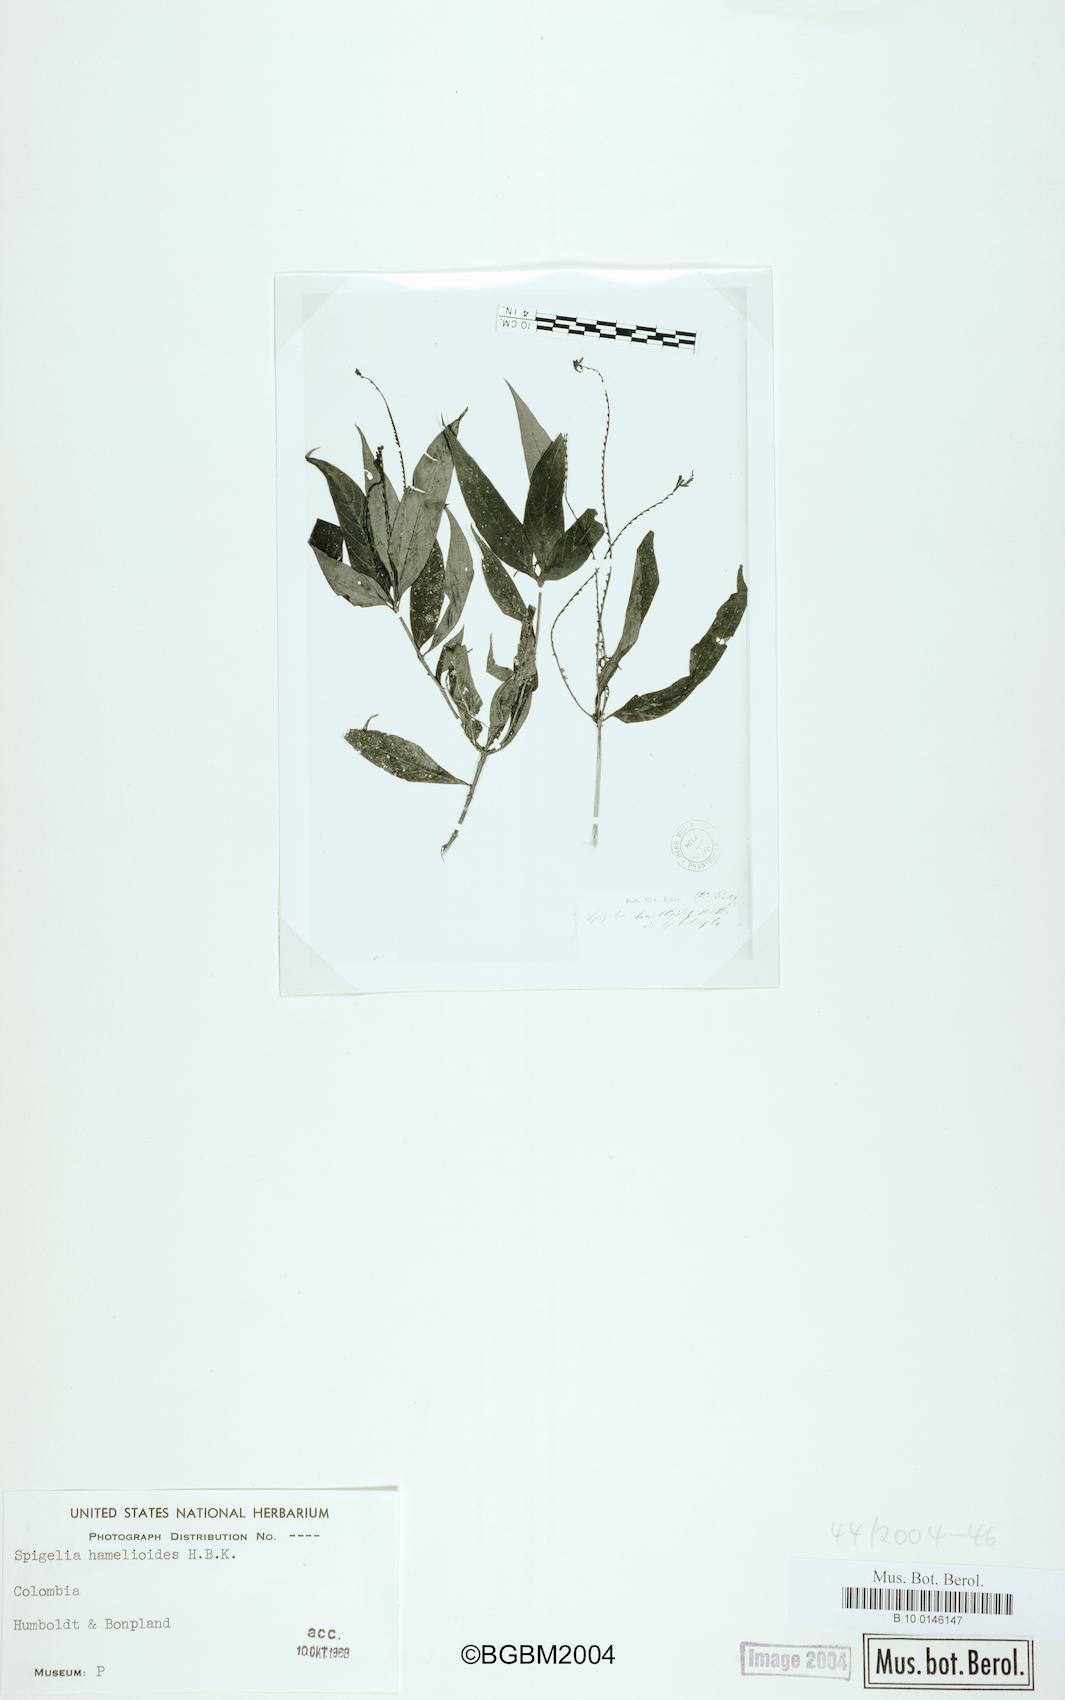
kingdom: Plantae
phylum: Tracheophyta
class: Magnoliopsida
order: Gentianales
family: Loganiaceae
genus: Spigelia
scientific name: Spigelia hamellioides
